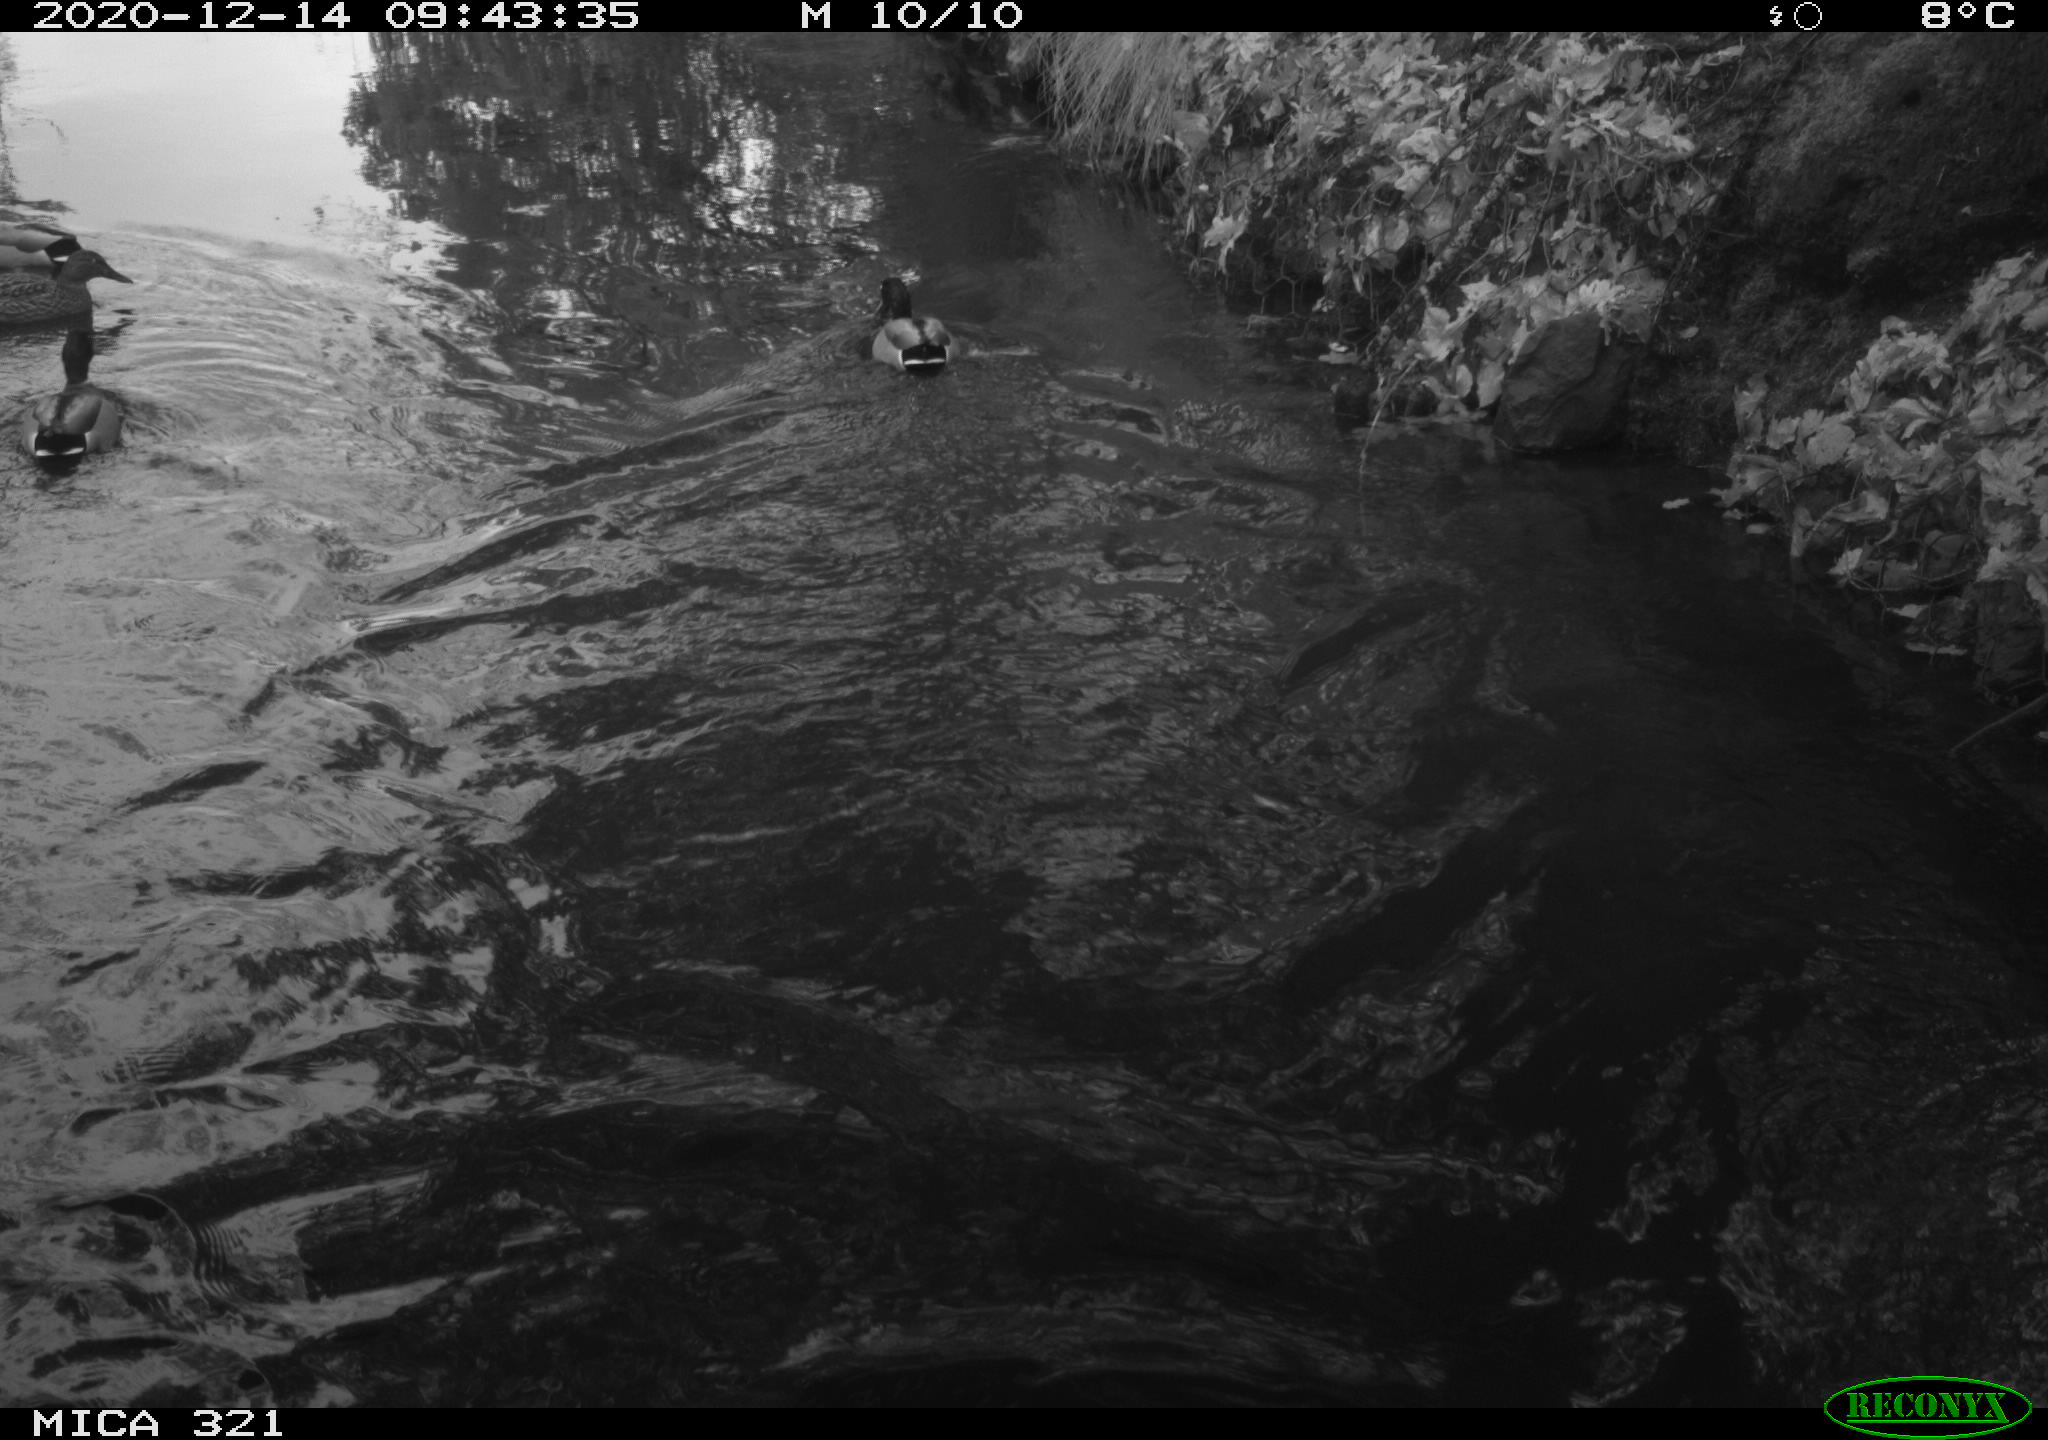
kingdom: Animalia
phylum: Chordata
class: Aves
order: Anseriformes
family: Anatidae
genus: Anas
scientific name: Anas platyrhynchos
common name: Mallard
